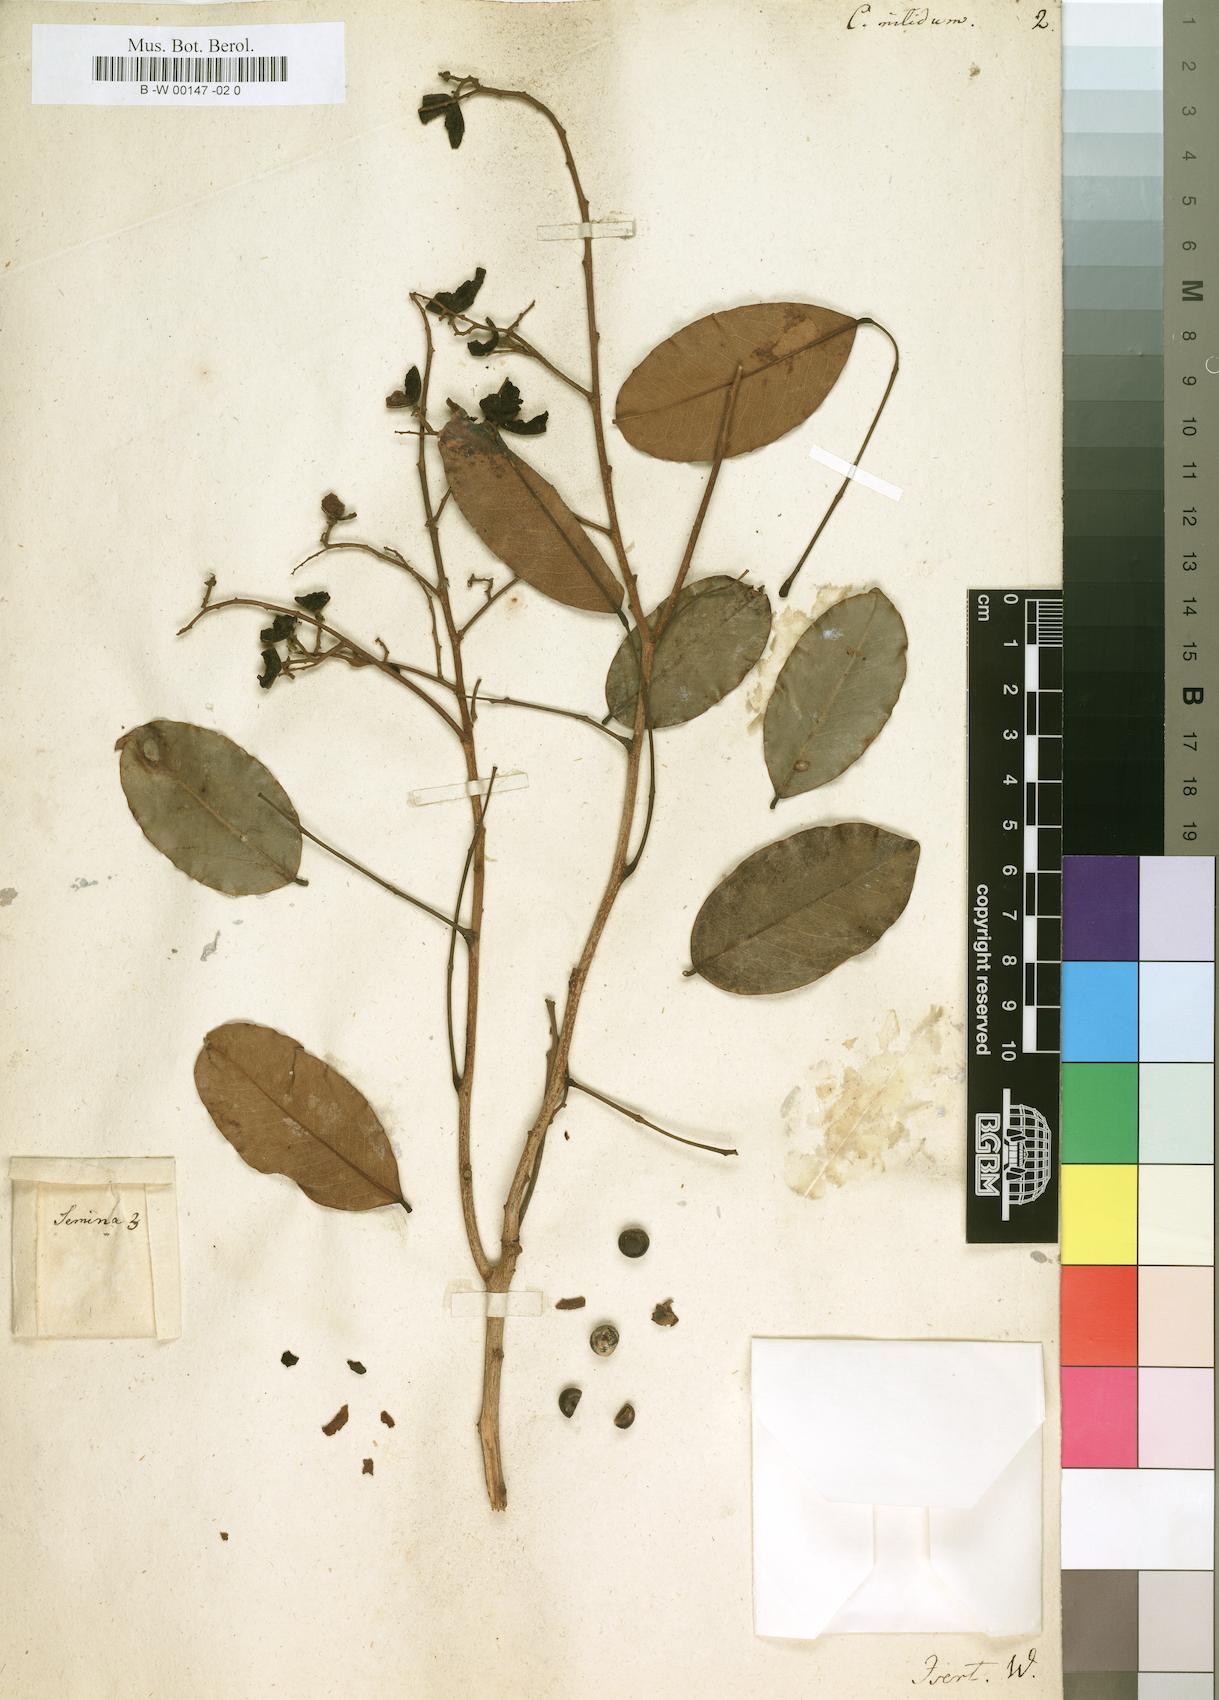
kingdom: Plantae
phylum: Tracheophyta
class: Magnoliopsida
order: Fabales
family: Fabaceae
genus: Dialium
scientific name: Dialium guineense
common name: Sierra leone-tamarind
